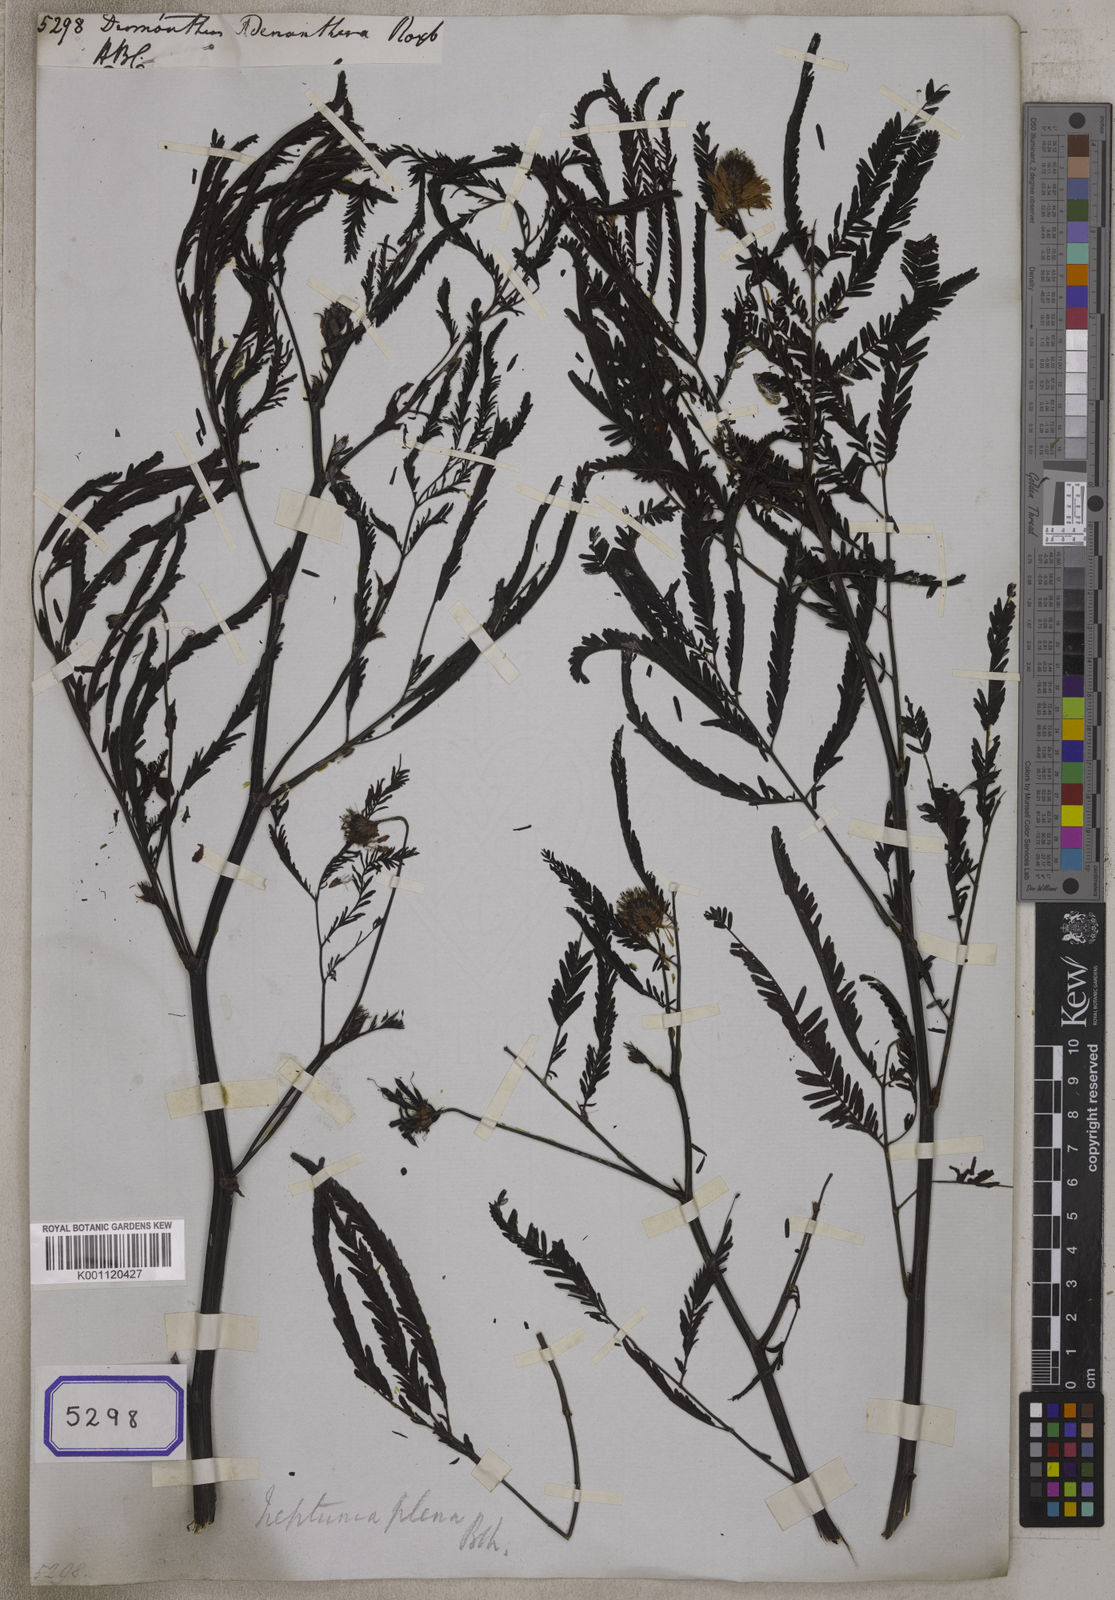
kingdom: Plantae
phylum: Tracheophyta
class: Magnoliopsida
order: Fabales
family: Fabaceae
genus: Neptunia
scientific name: Neptunia plena
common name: Dead and awake
